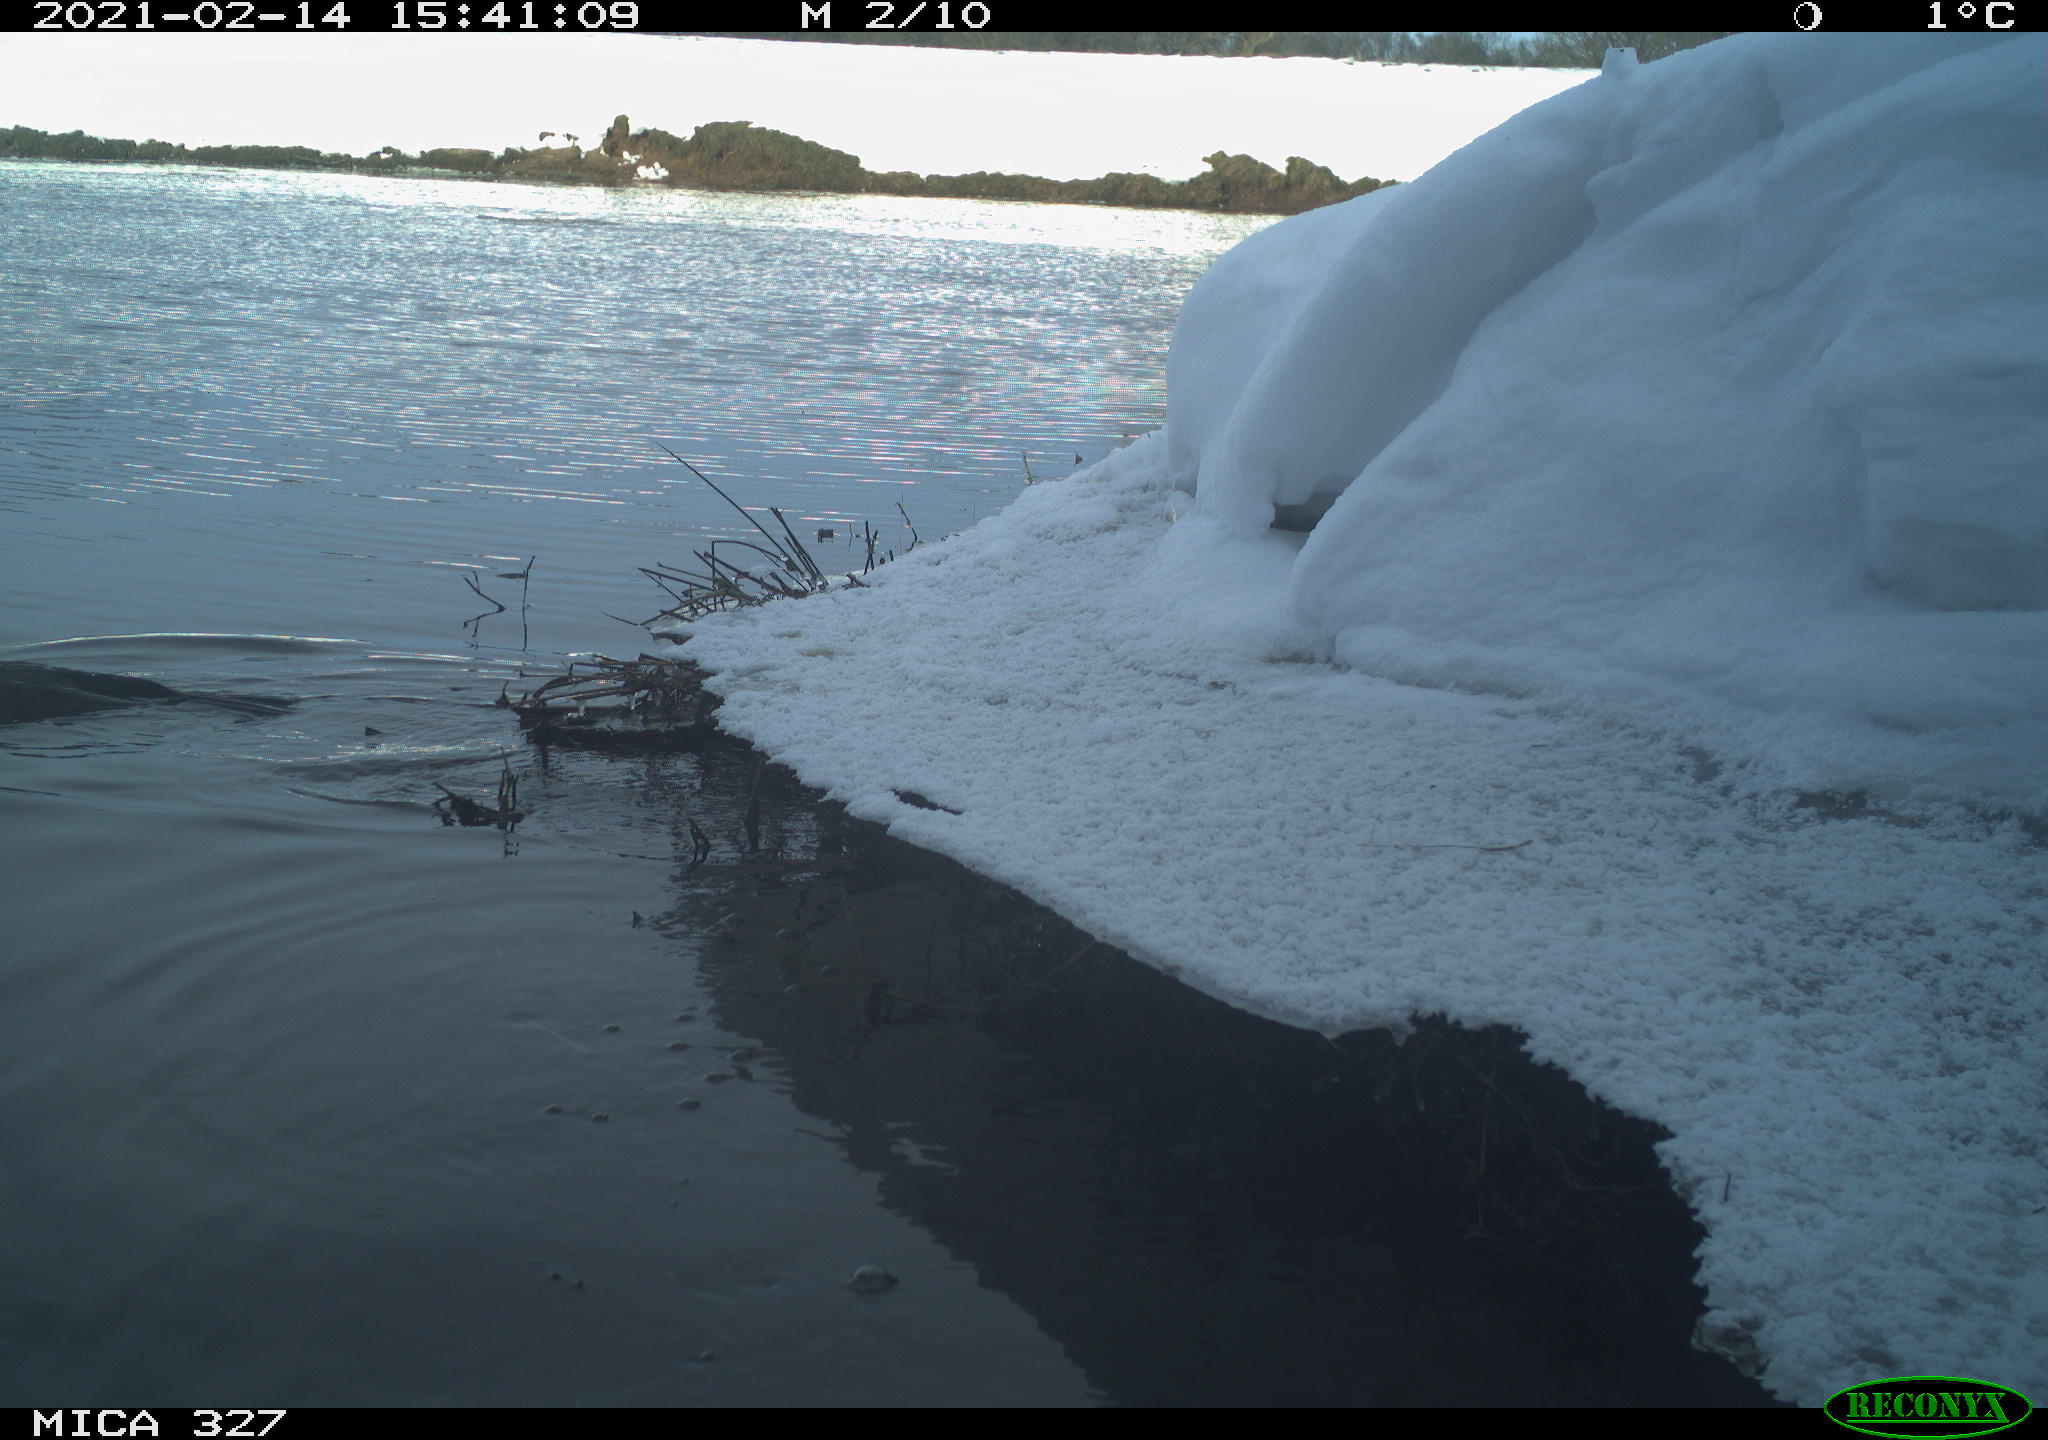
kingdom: Animalia
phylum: Chordata
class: Aves
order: Suliformes
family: Phalacrocoracidae
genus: Phalacrocorax
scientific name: Phalacrocorax carbo
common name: Great cormorant
